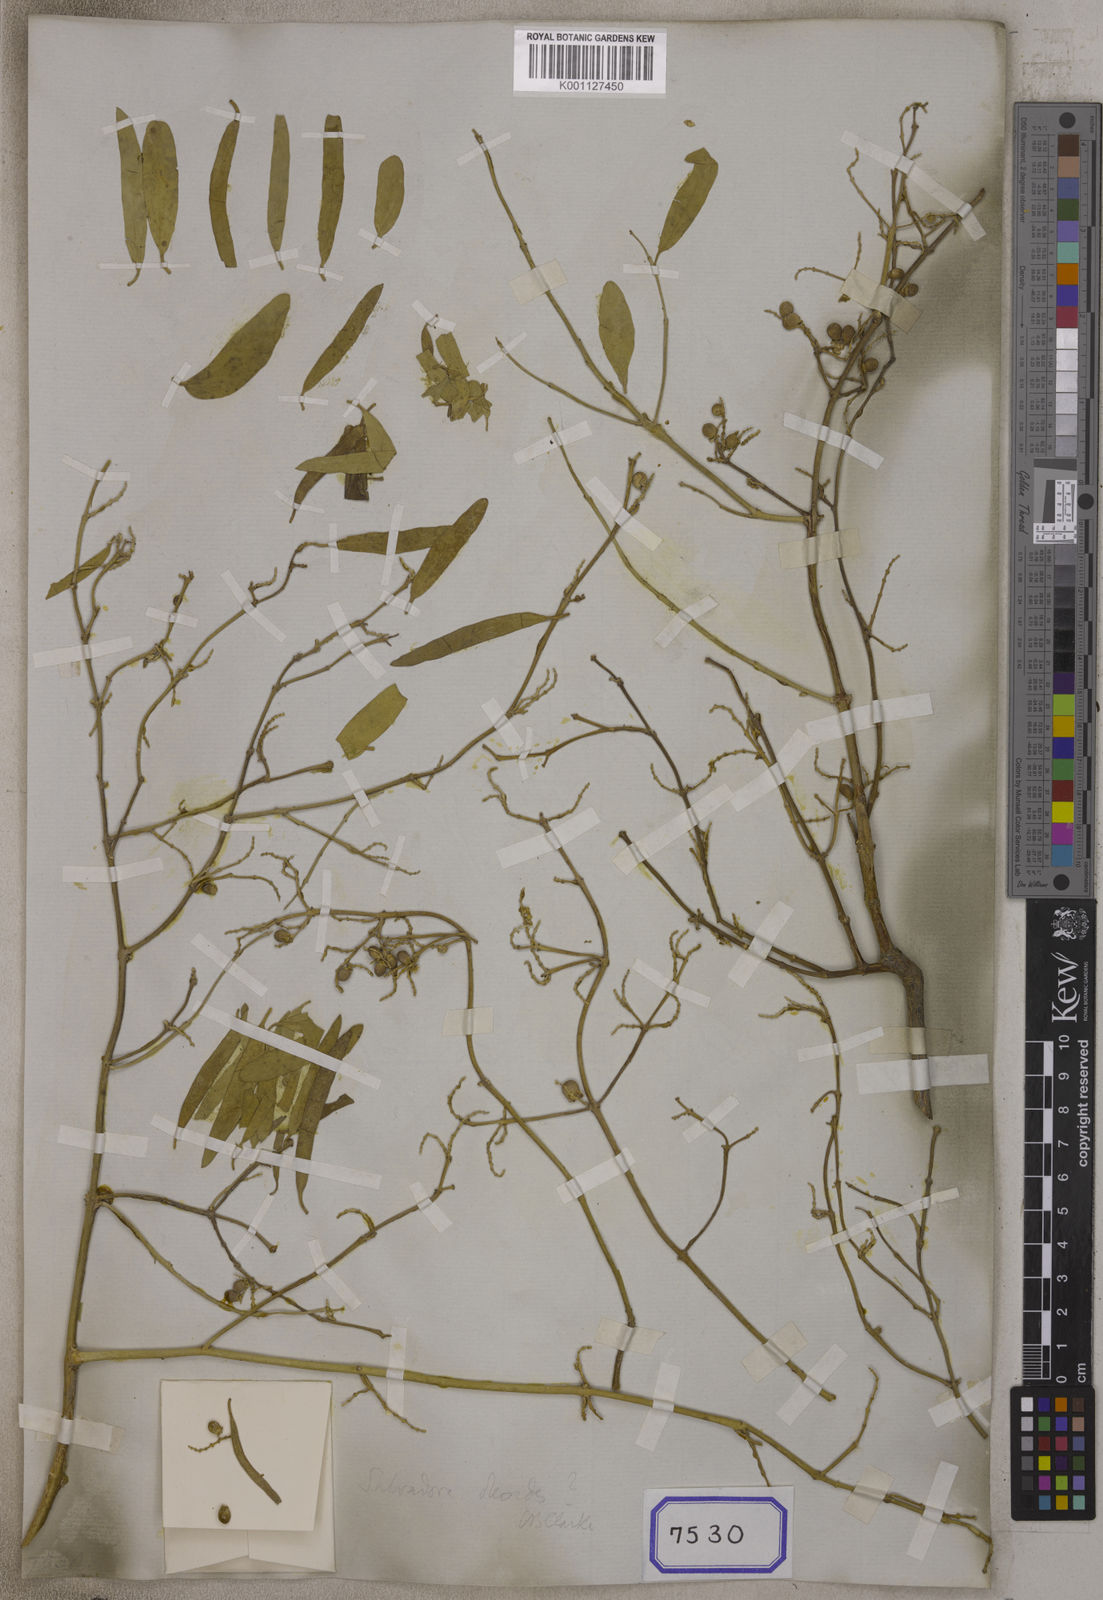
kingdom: Plantae
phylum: Tracheophyta
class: Magnoliopsida
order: Brassicales
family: Salvadoraceae
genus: Salvadora
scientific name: Salvadora
